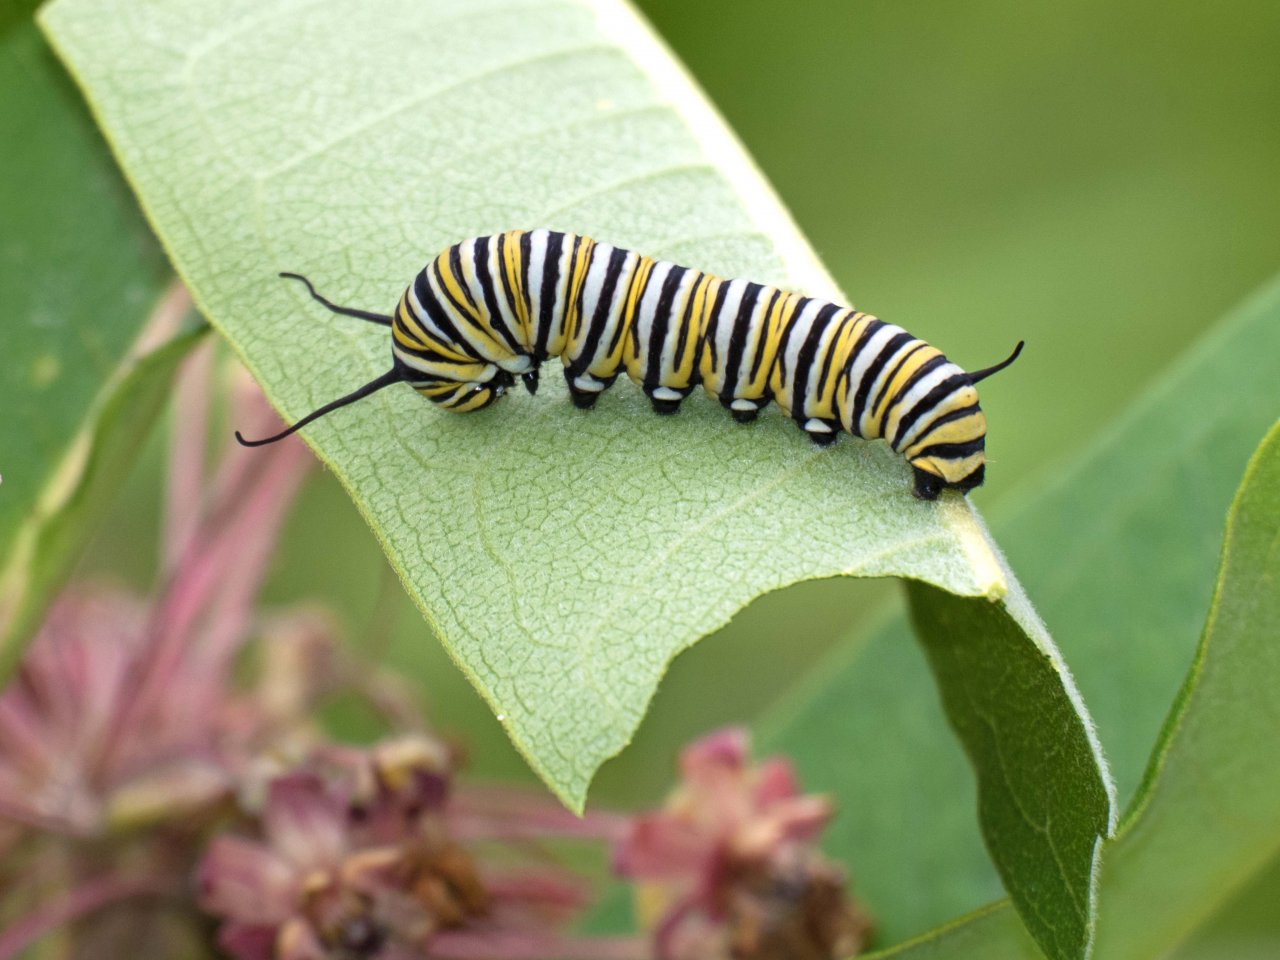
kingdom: Animalia
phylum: Arthropoda
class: Insecta
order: Lepidoptera
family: Nymphalidae
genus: Danaus
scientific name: Danaus plexippus
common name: Monarch
